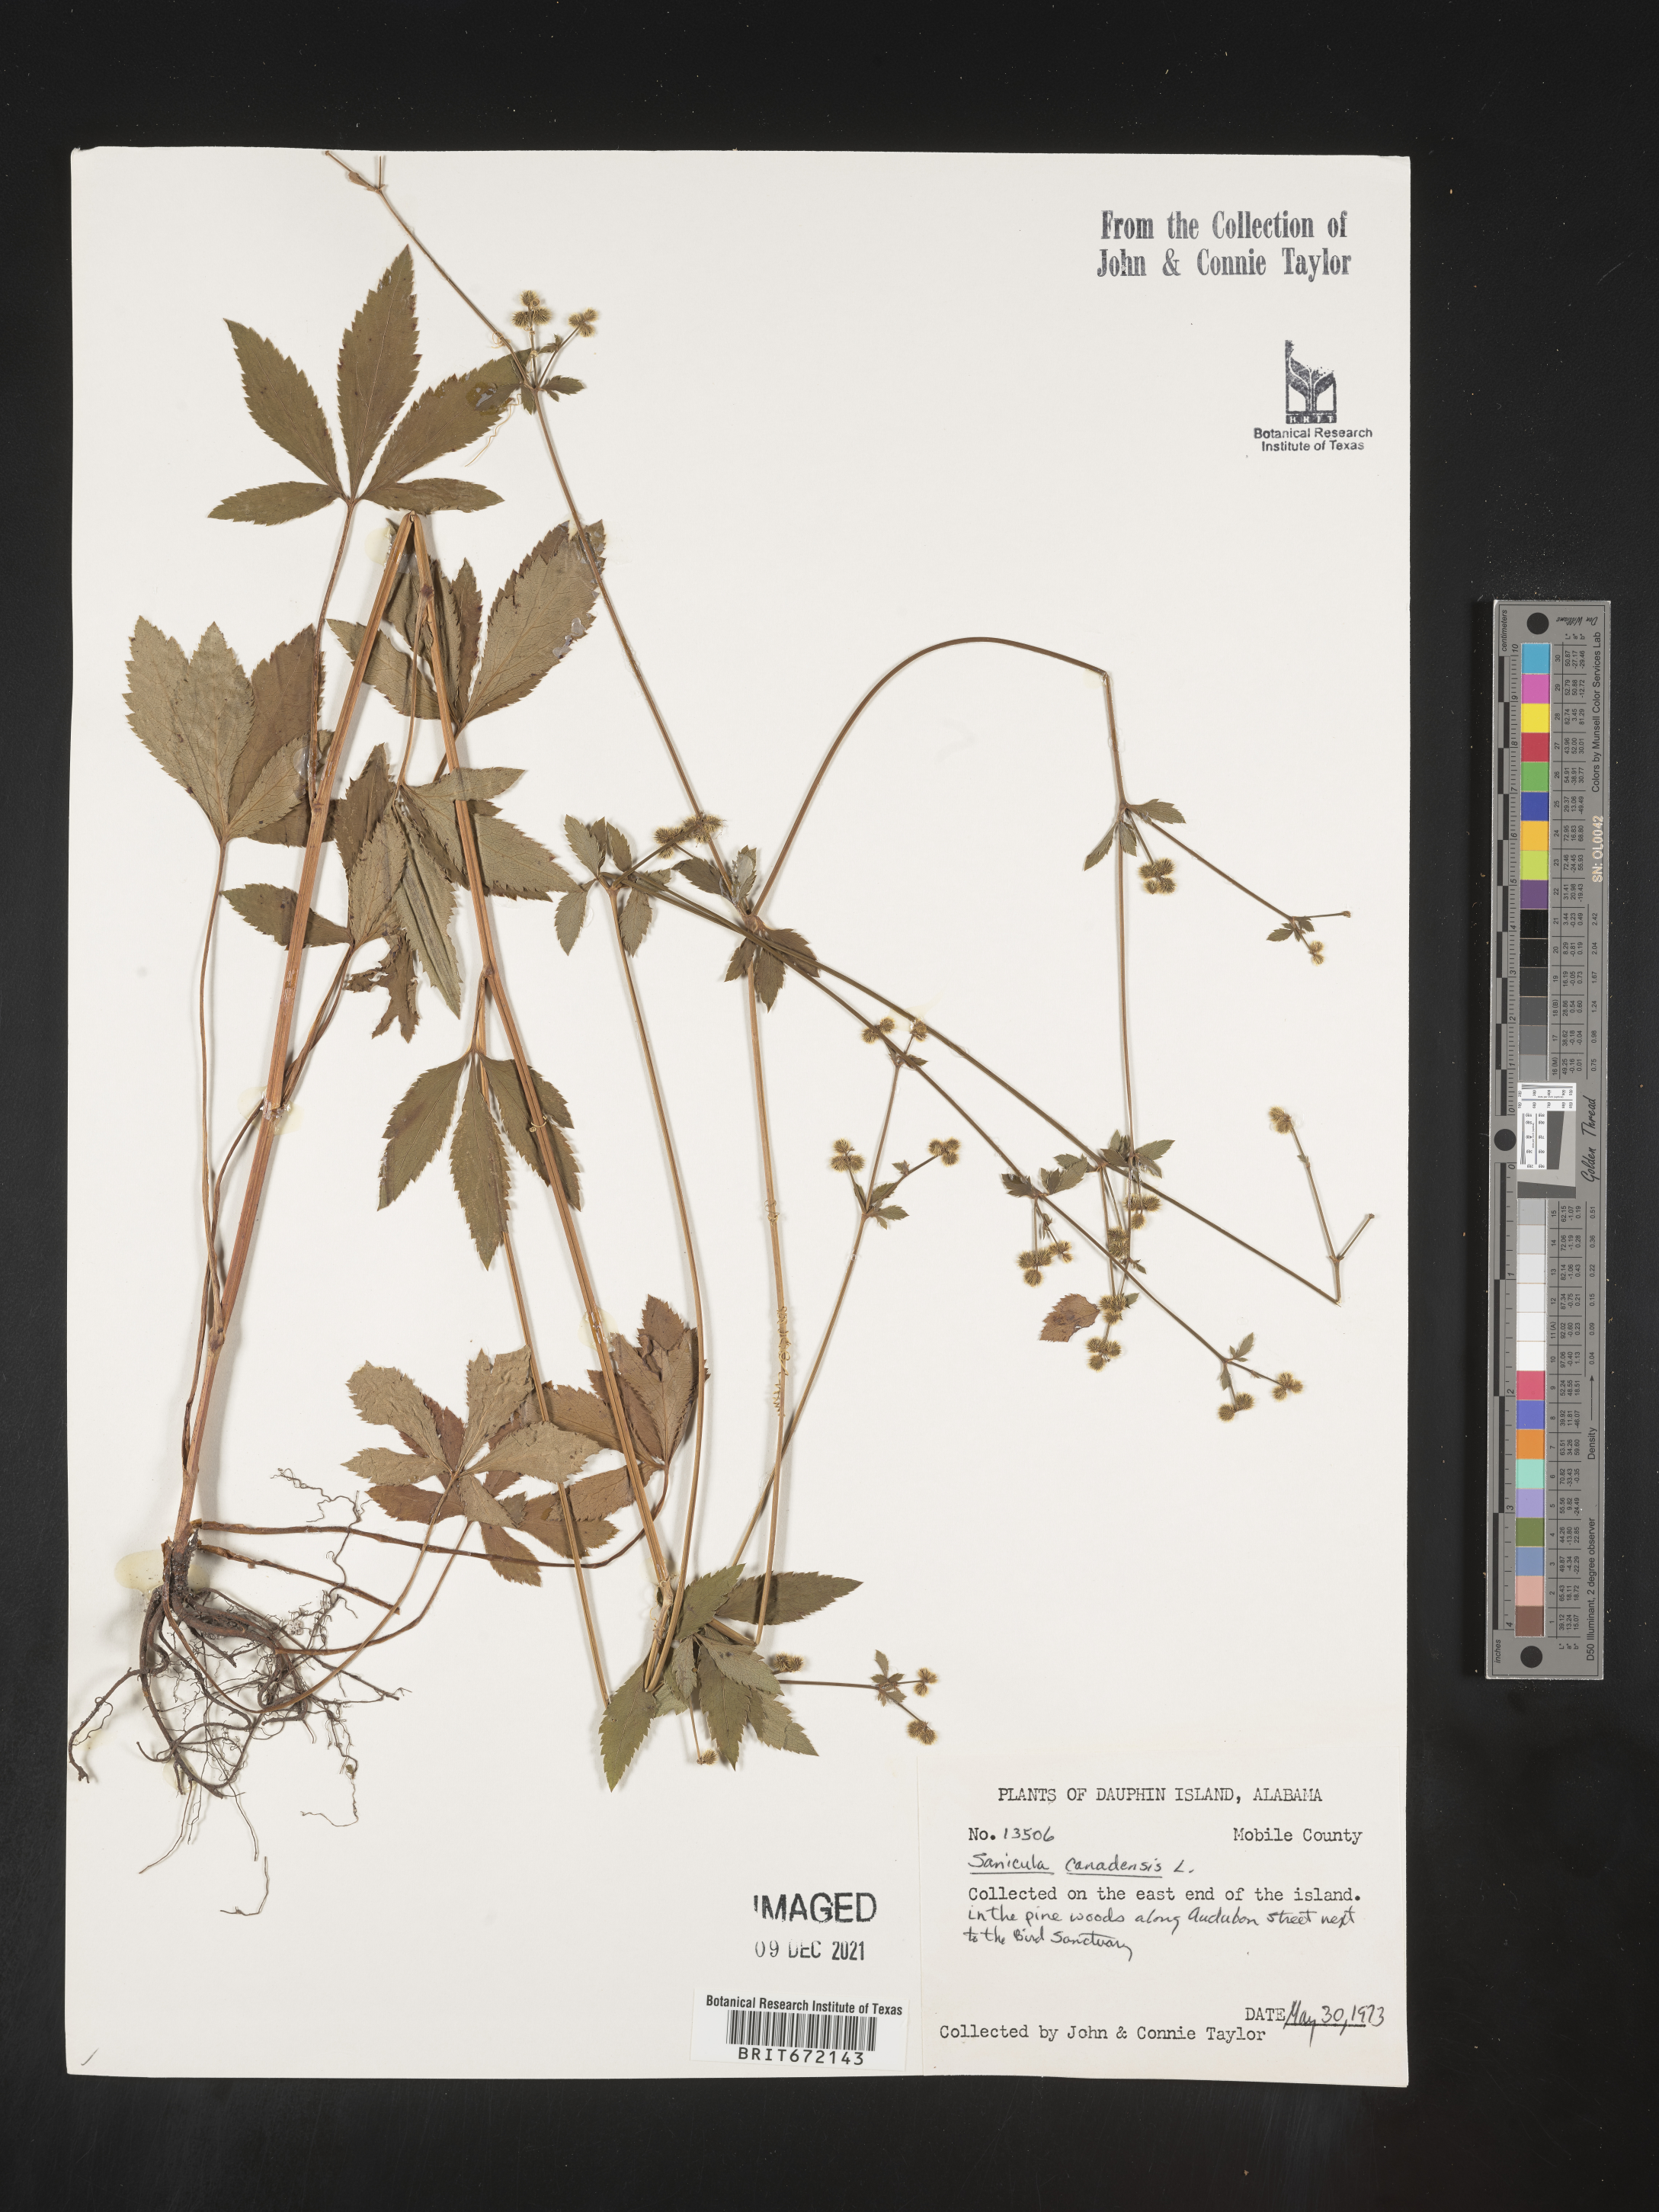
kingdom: Plantae
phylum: Tracheophyta
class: Magnoliopsida
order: Apiales
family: Apiaceae
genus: Sanicula
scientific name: Sanicula canadensis
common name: Canada sanicle
